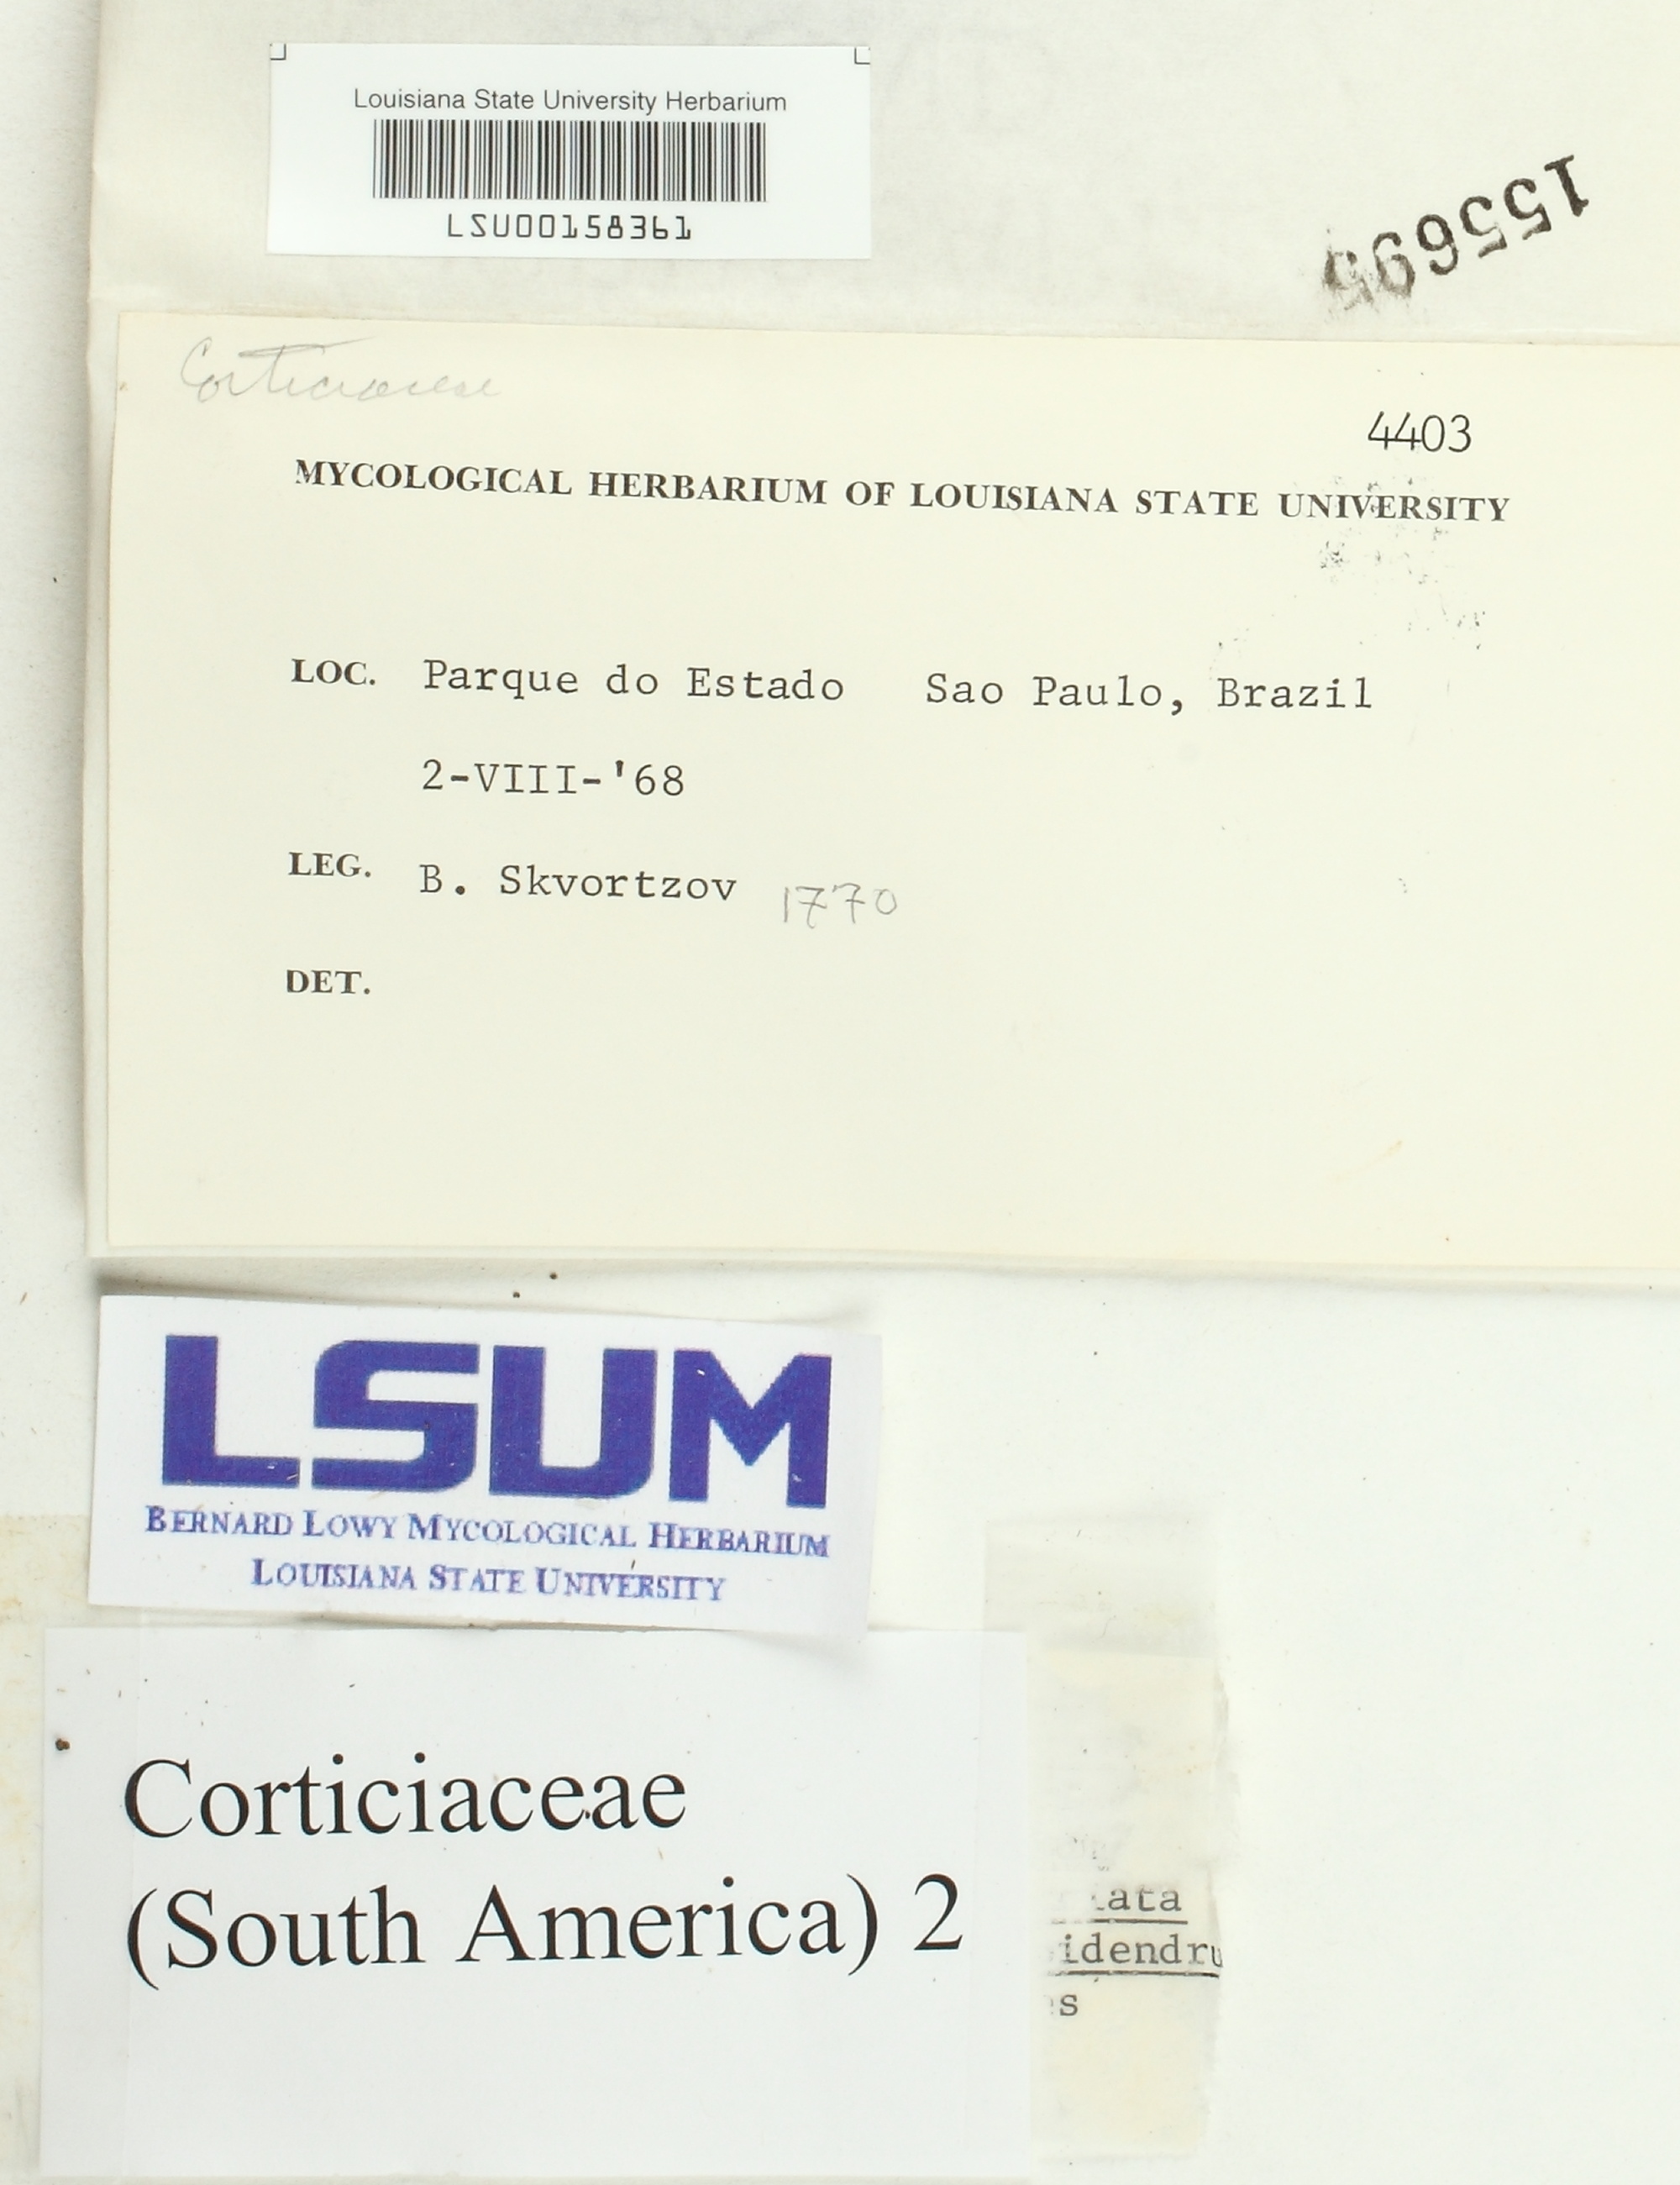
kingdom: Fungi
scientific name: Fungi
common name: Fungi
